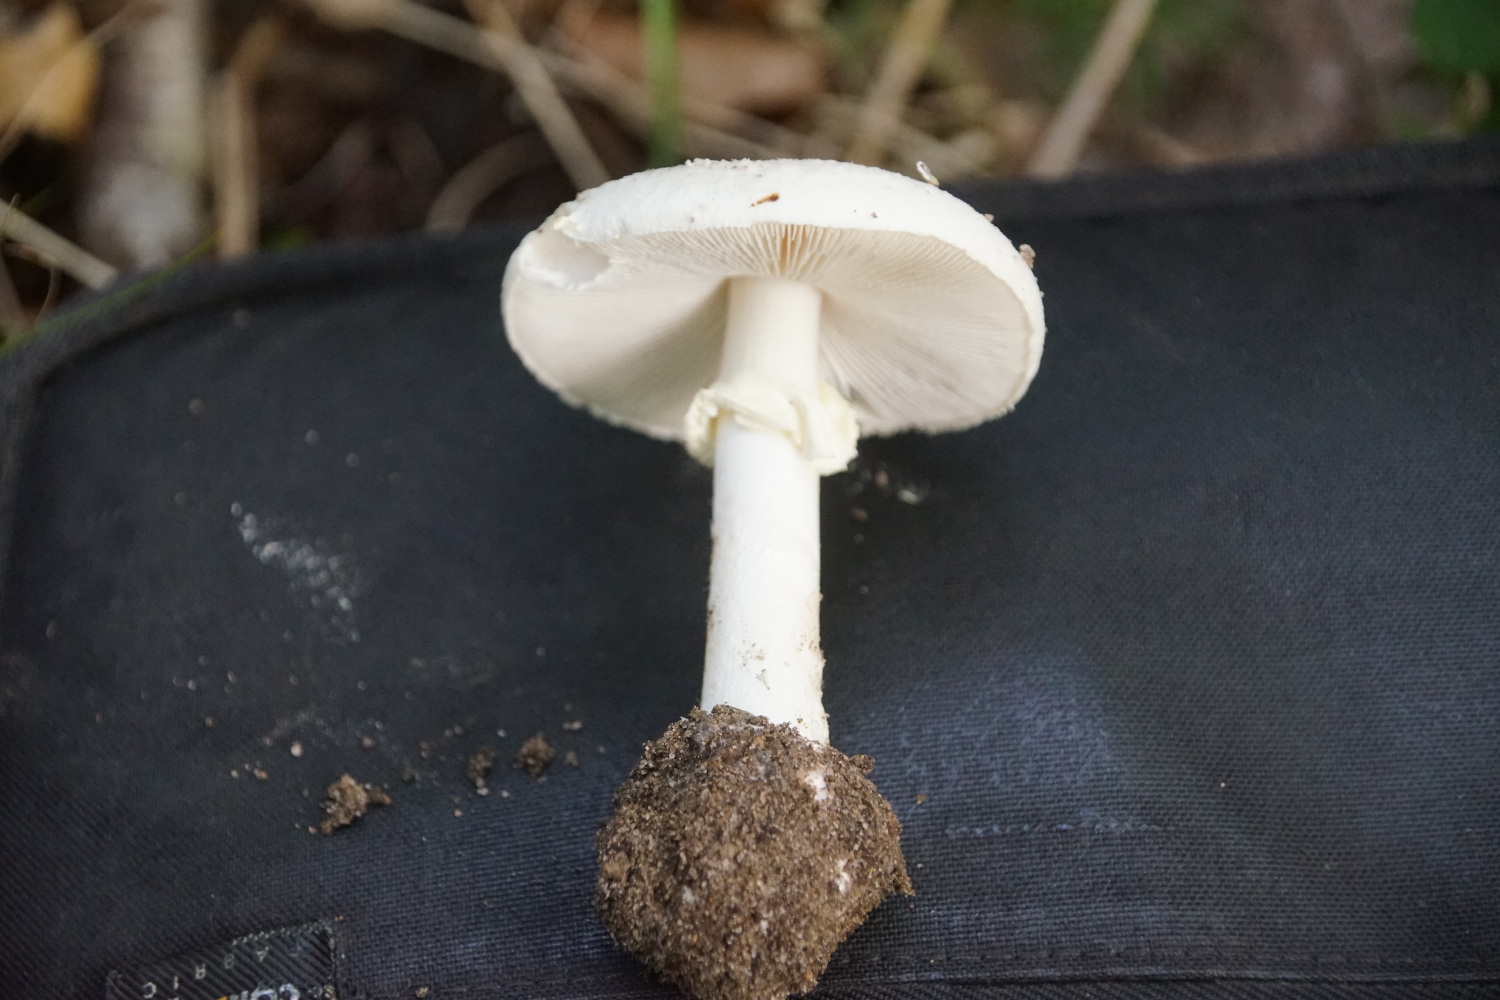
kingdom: Fungi
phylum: Basidiomycota
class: Agaricomycetes
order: Agaricales
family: Amanitaceae
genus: Amanita
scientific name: Amanita citrina
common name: False death-cap
